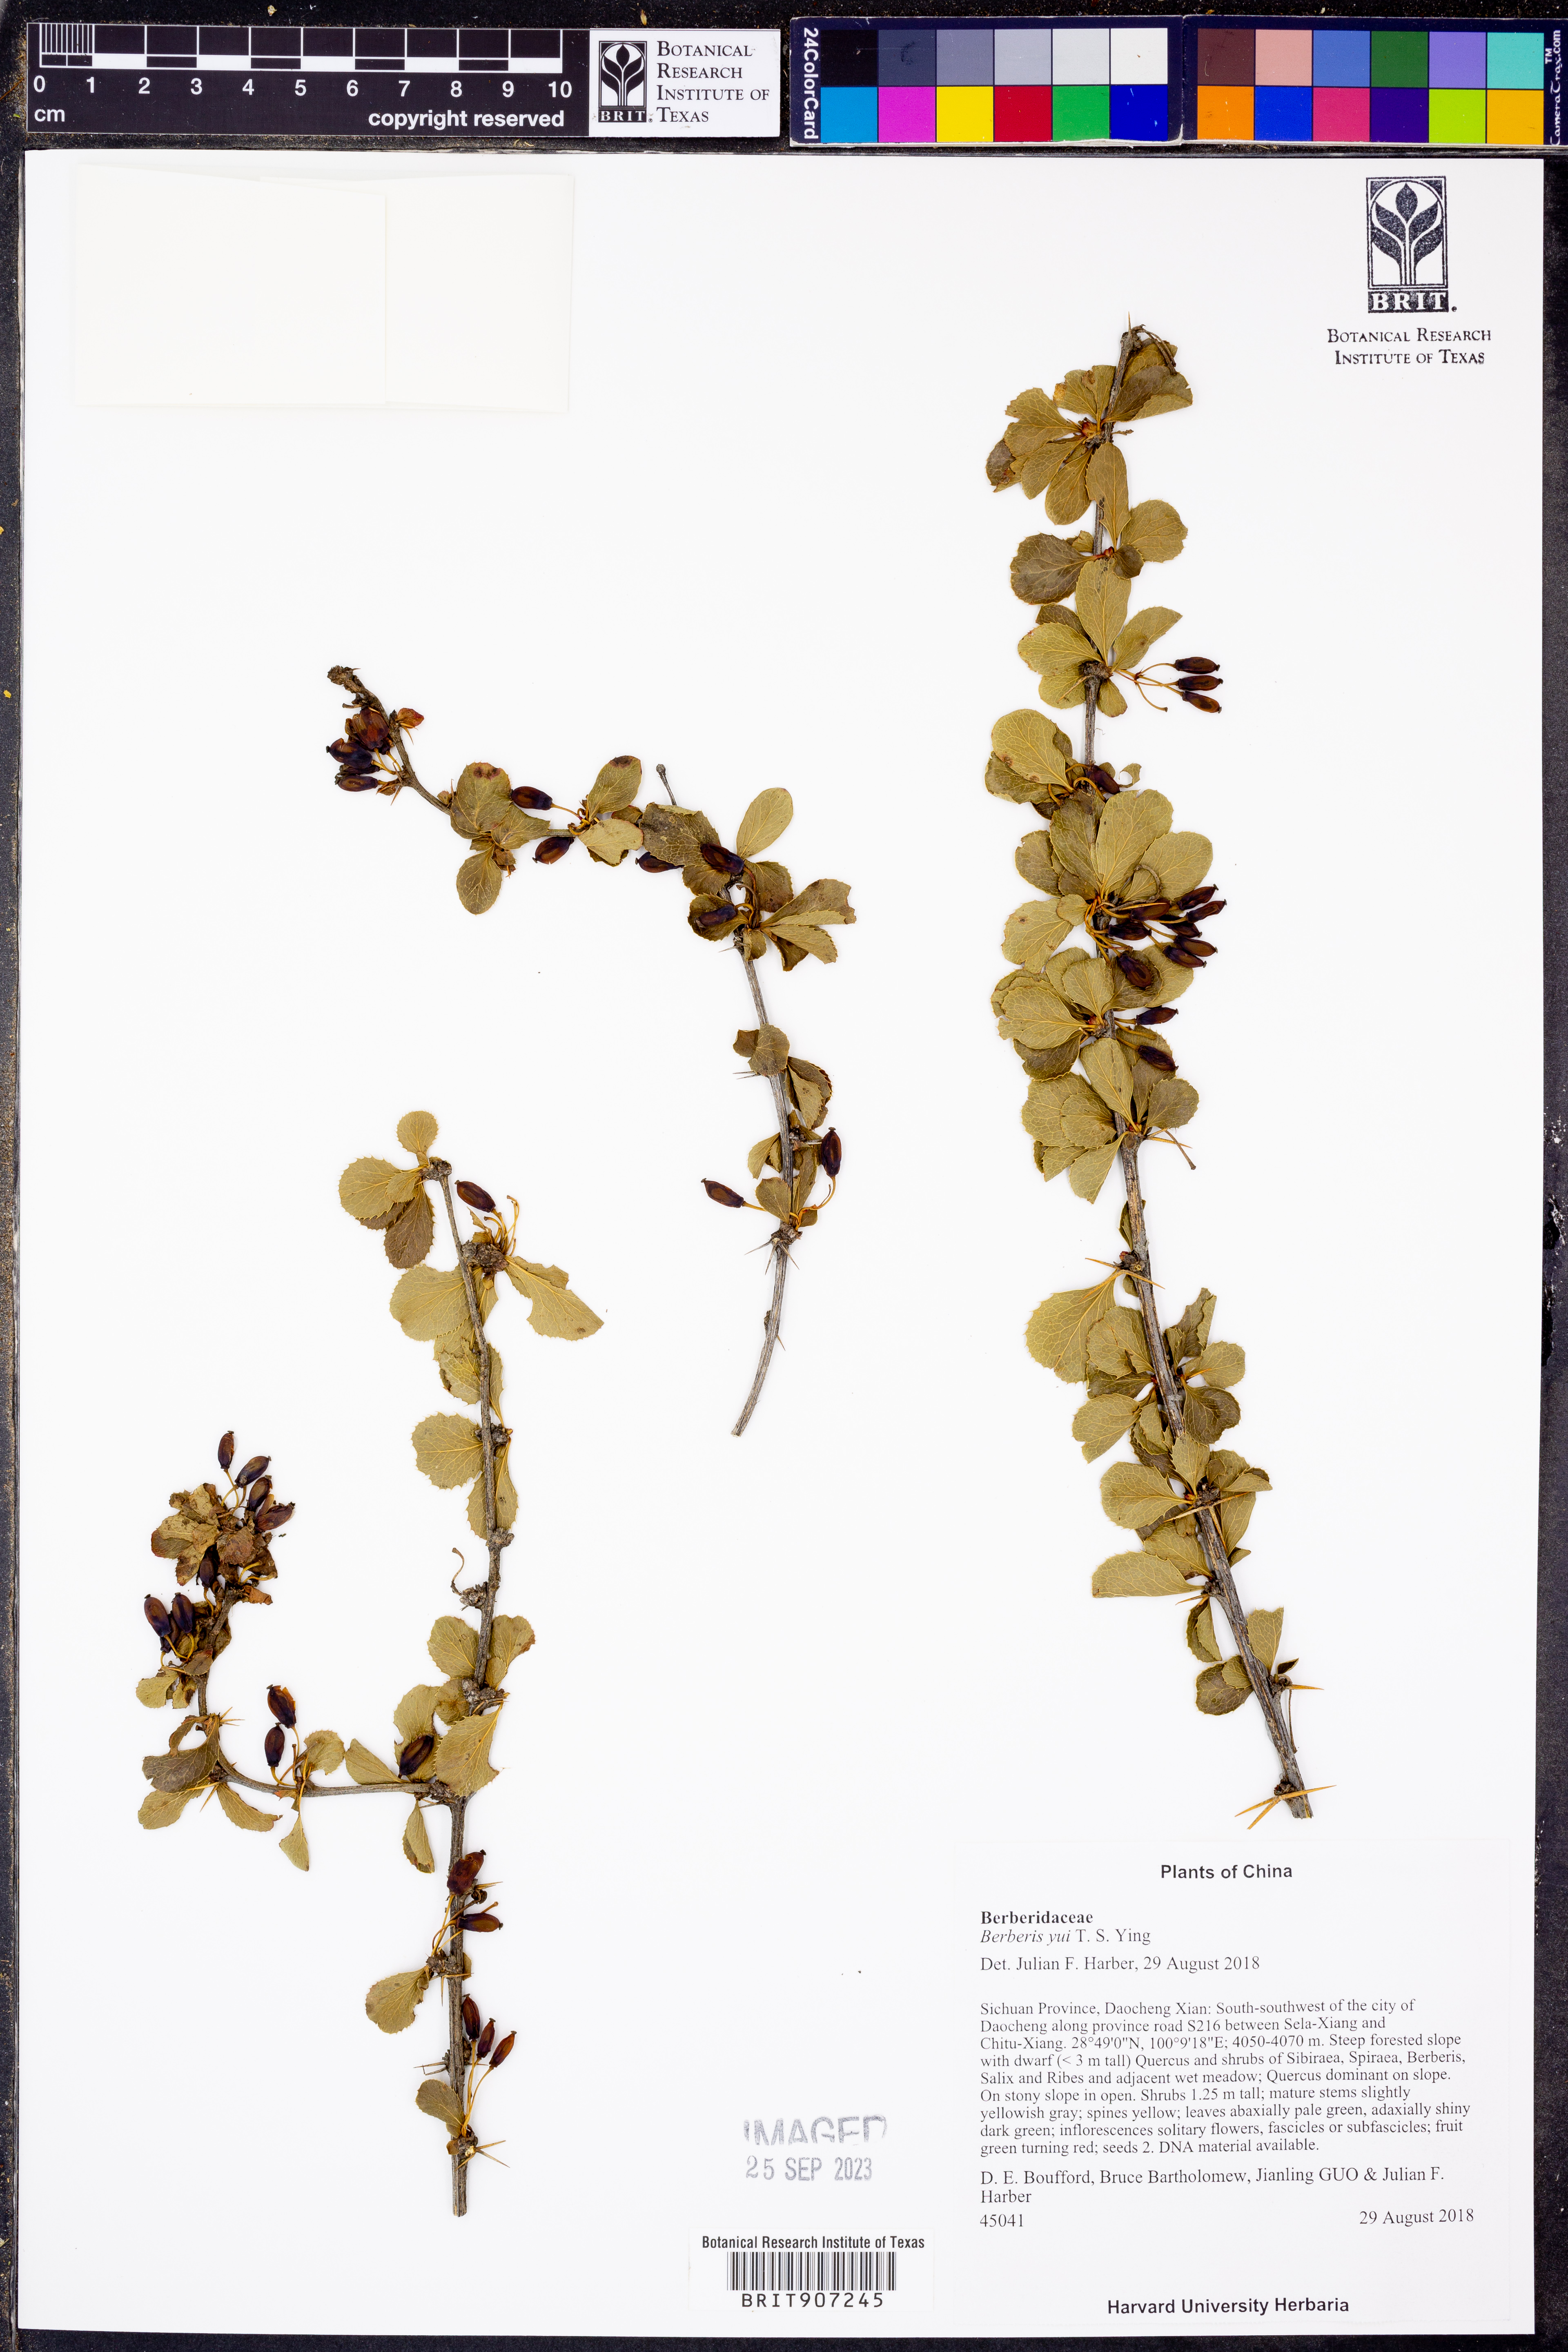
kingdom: Plantae
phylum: Tracheophyta
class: Magnoliopsida
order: Ranunculales
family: Berberidaceae
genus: Berberis
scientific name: Berberis yui
